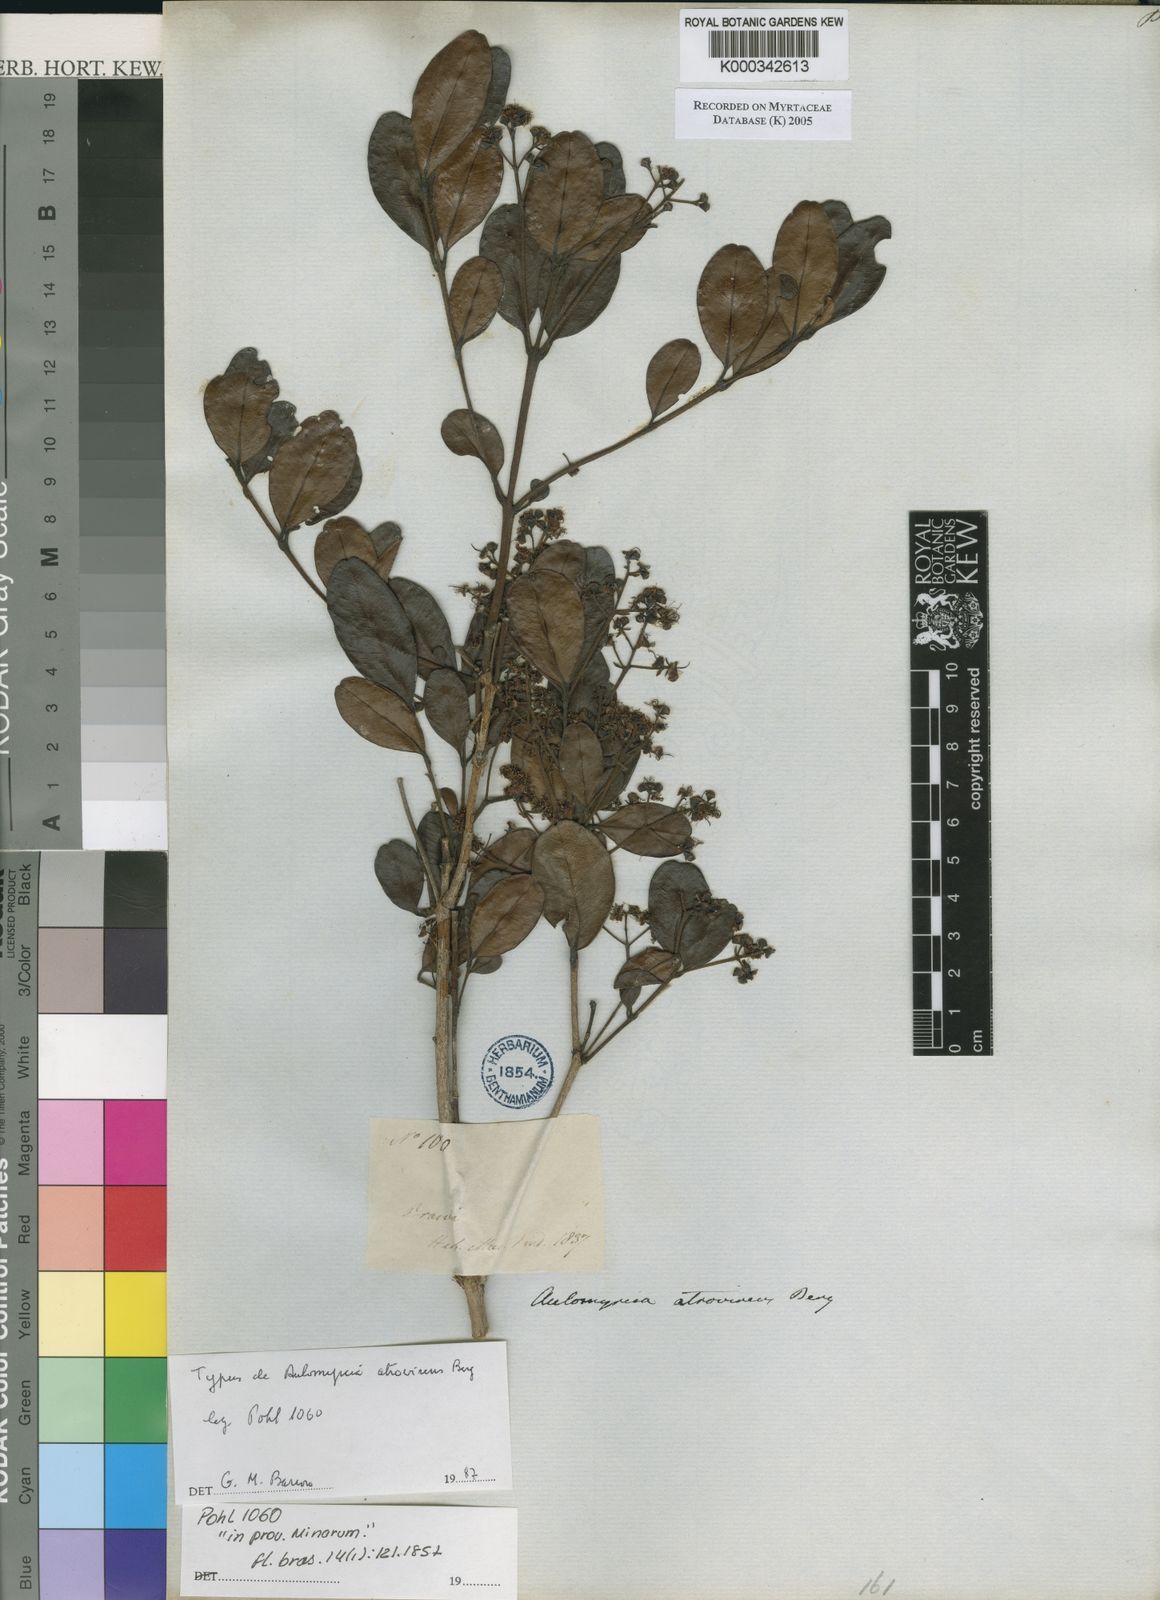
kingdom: Plantae
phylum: Tracheophyta
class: Magnoliopsida
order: Myrtales
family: Myrtaceae
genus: Myrcia
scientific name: Myrcia obovata
